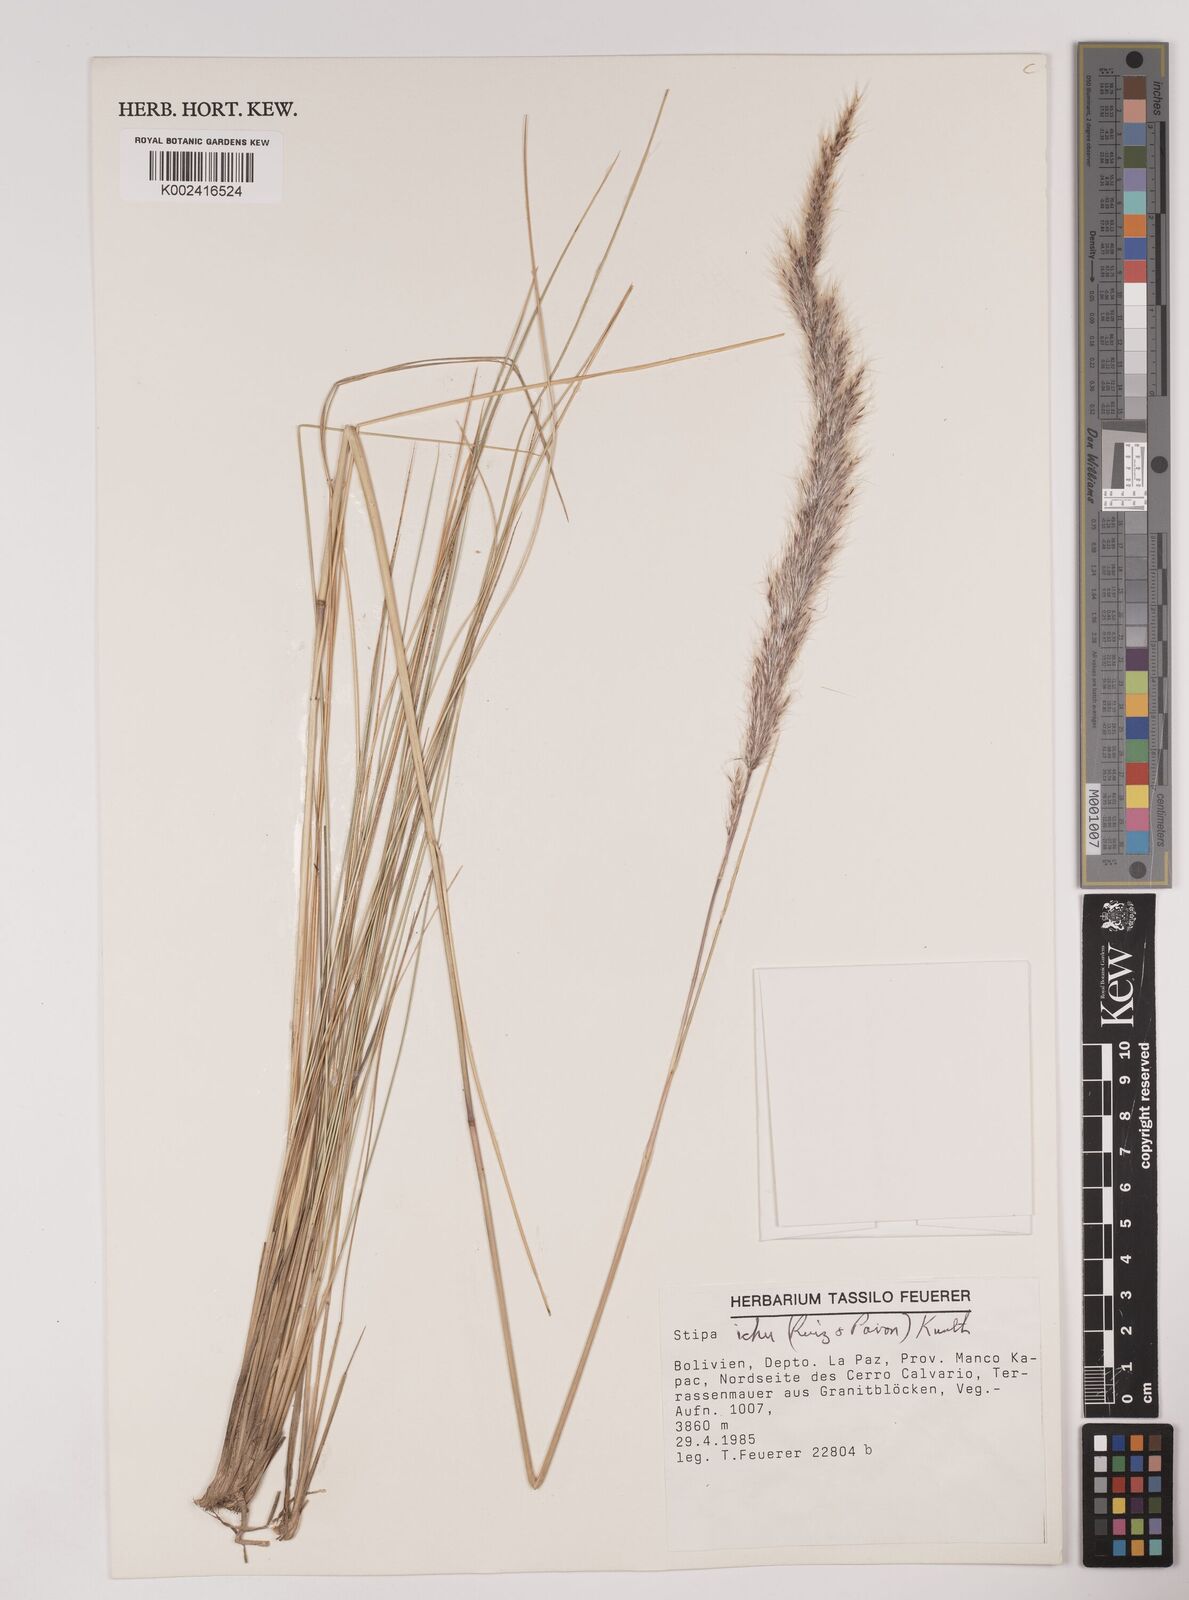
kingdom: Plantae
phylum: Tracheophyta
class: Liliopsida
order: Poales
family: Poaceae
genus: Jarava
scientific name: Jarava ichu
